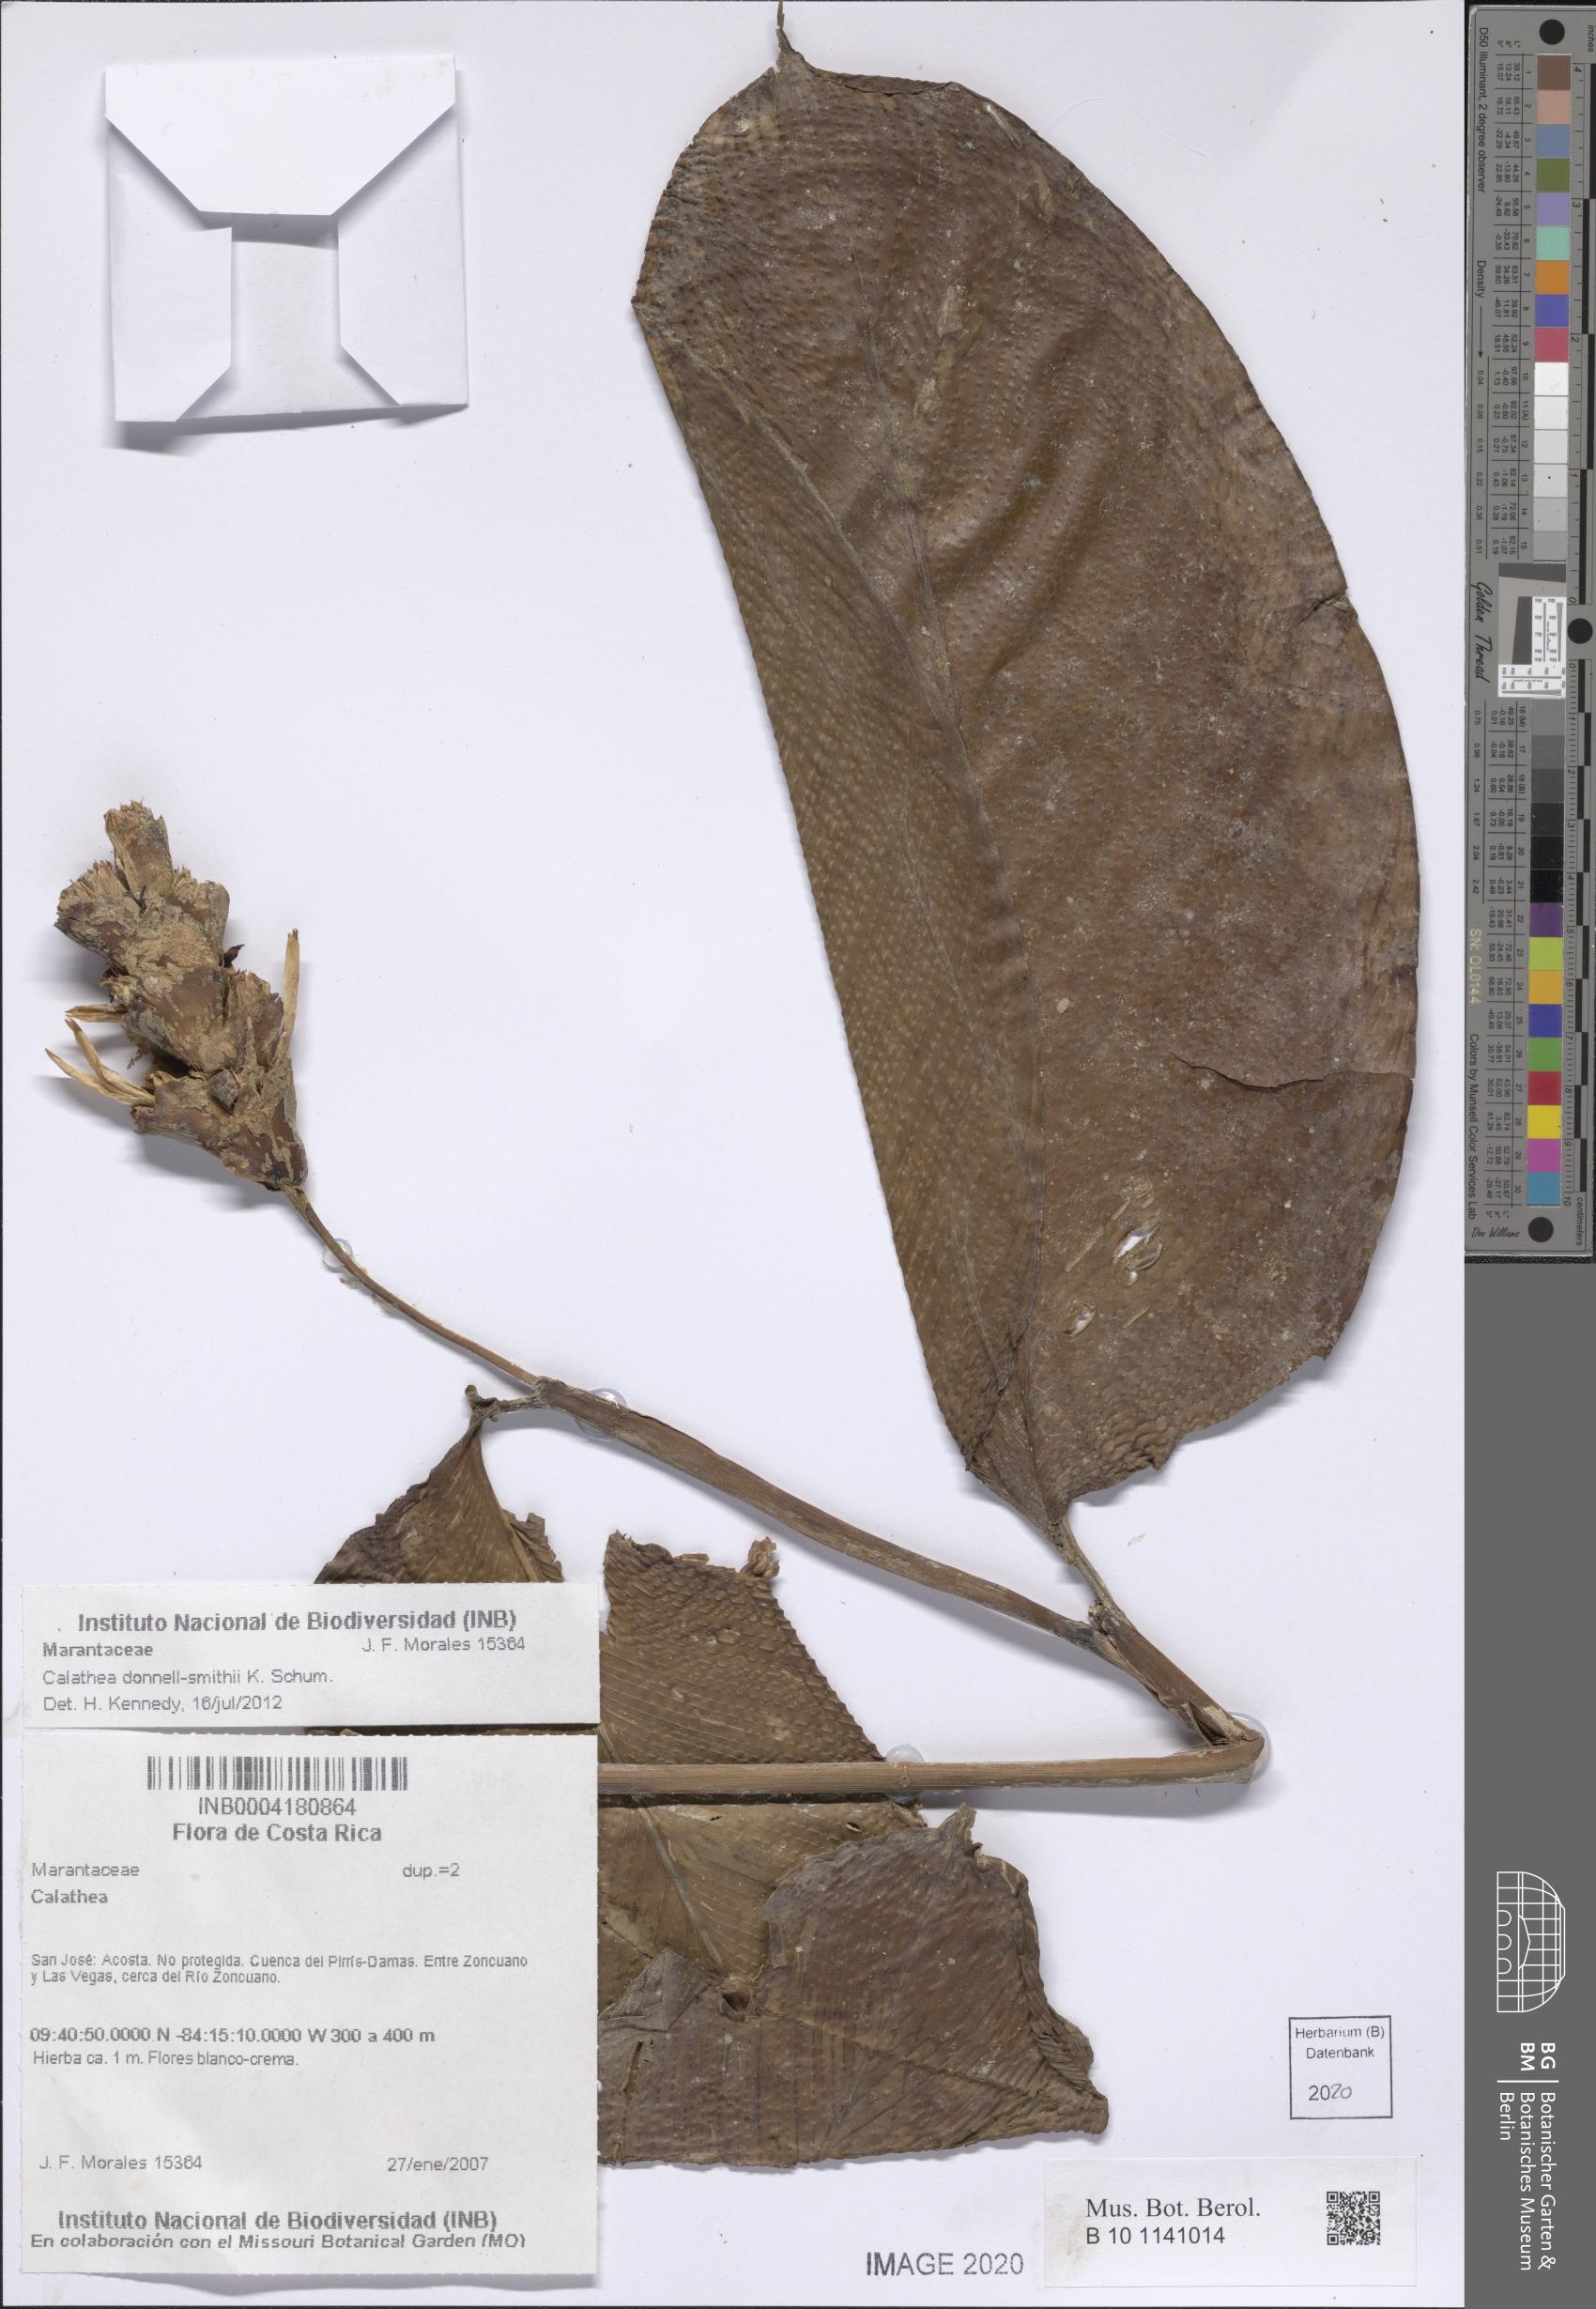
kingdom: Plantae
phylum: Tracheophyta
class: Liliopsida
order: Zingiberales
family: Marantaceae
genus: Goeppertia
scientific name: Goeppertia donnell-smithii
